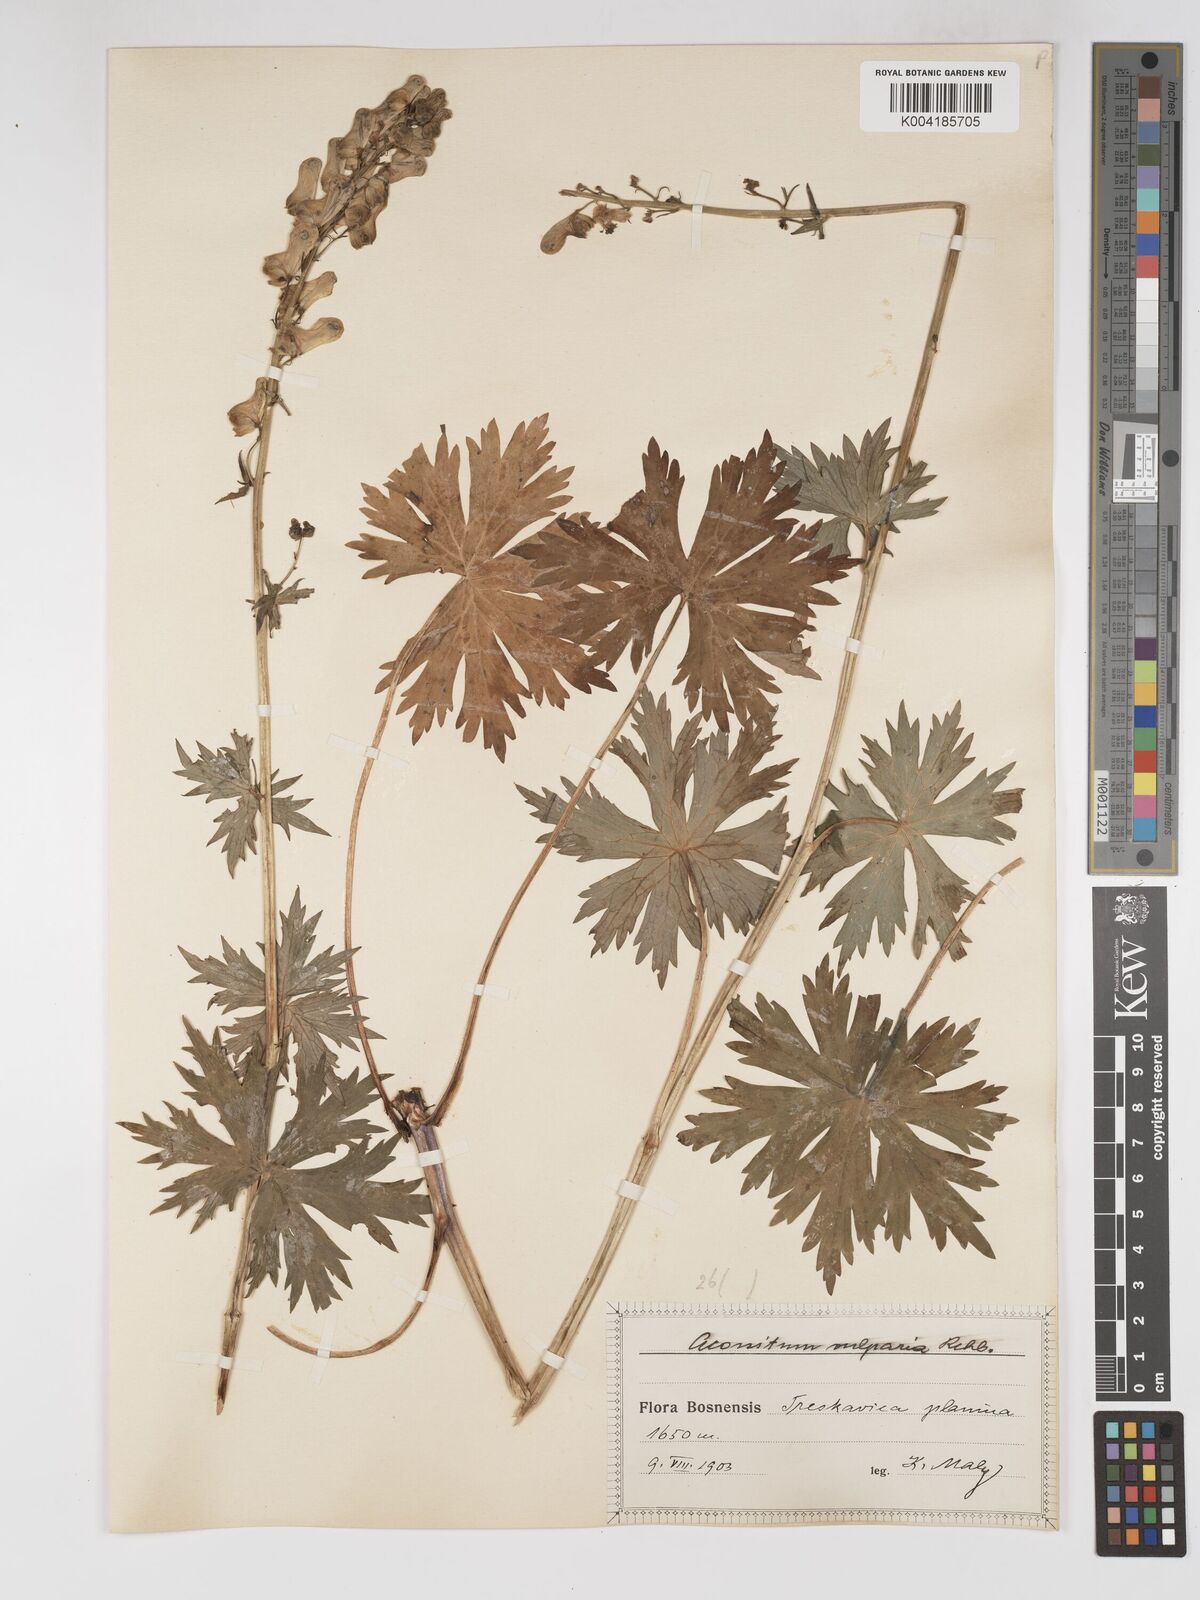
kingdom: Plantae
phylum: Tracheophyta
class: Magnoliopsida
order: Ranunculales
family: Ranunculaceae
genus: Aconitum
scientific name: Aconitum lycoctonum
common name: Wolf's-bane
